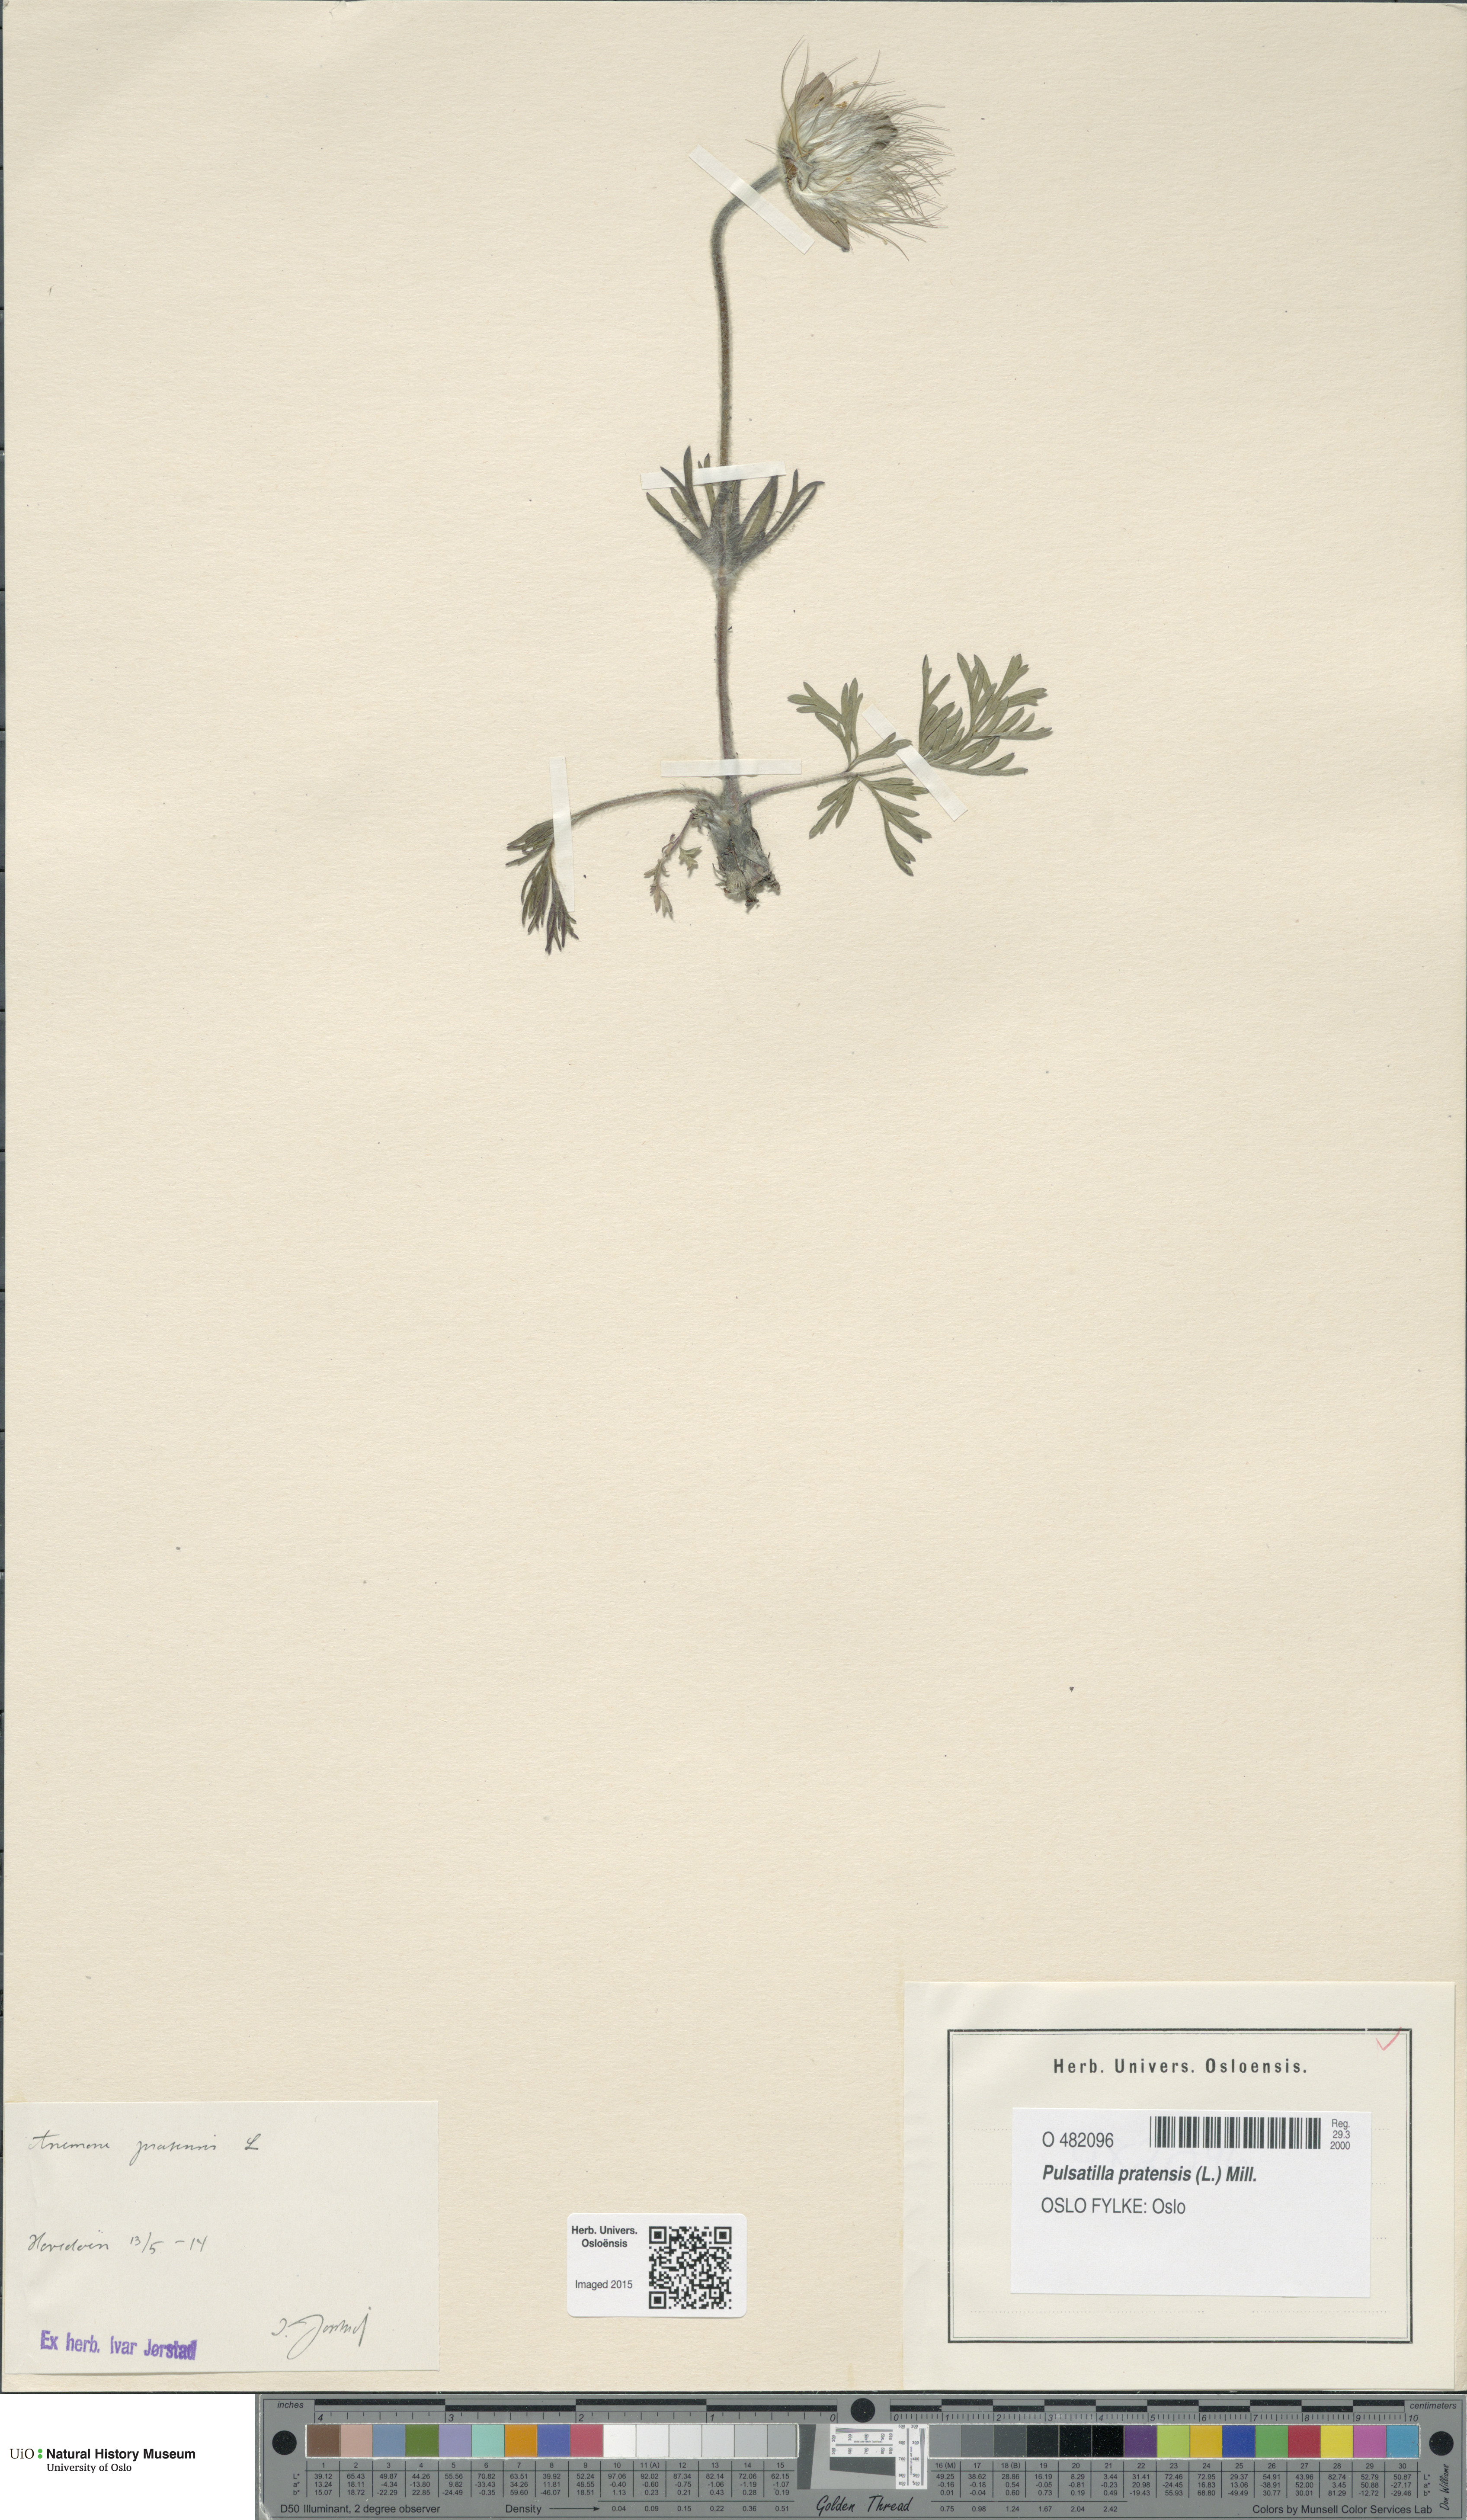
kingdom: Plantae
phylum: Tracheophyta
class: Magnoliopsida
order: Ranunculales
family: Ranunculaceae
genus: Pulsatilla
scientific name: Pulsatilla pratensis
